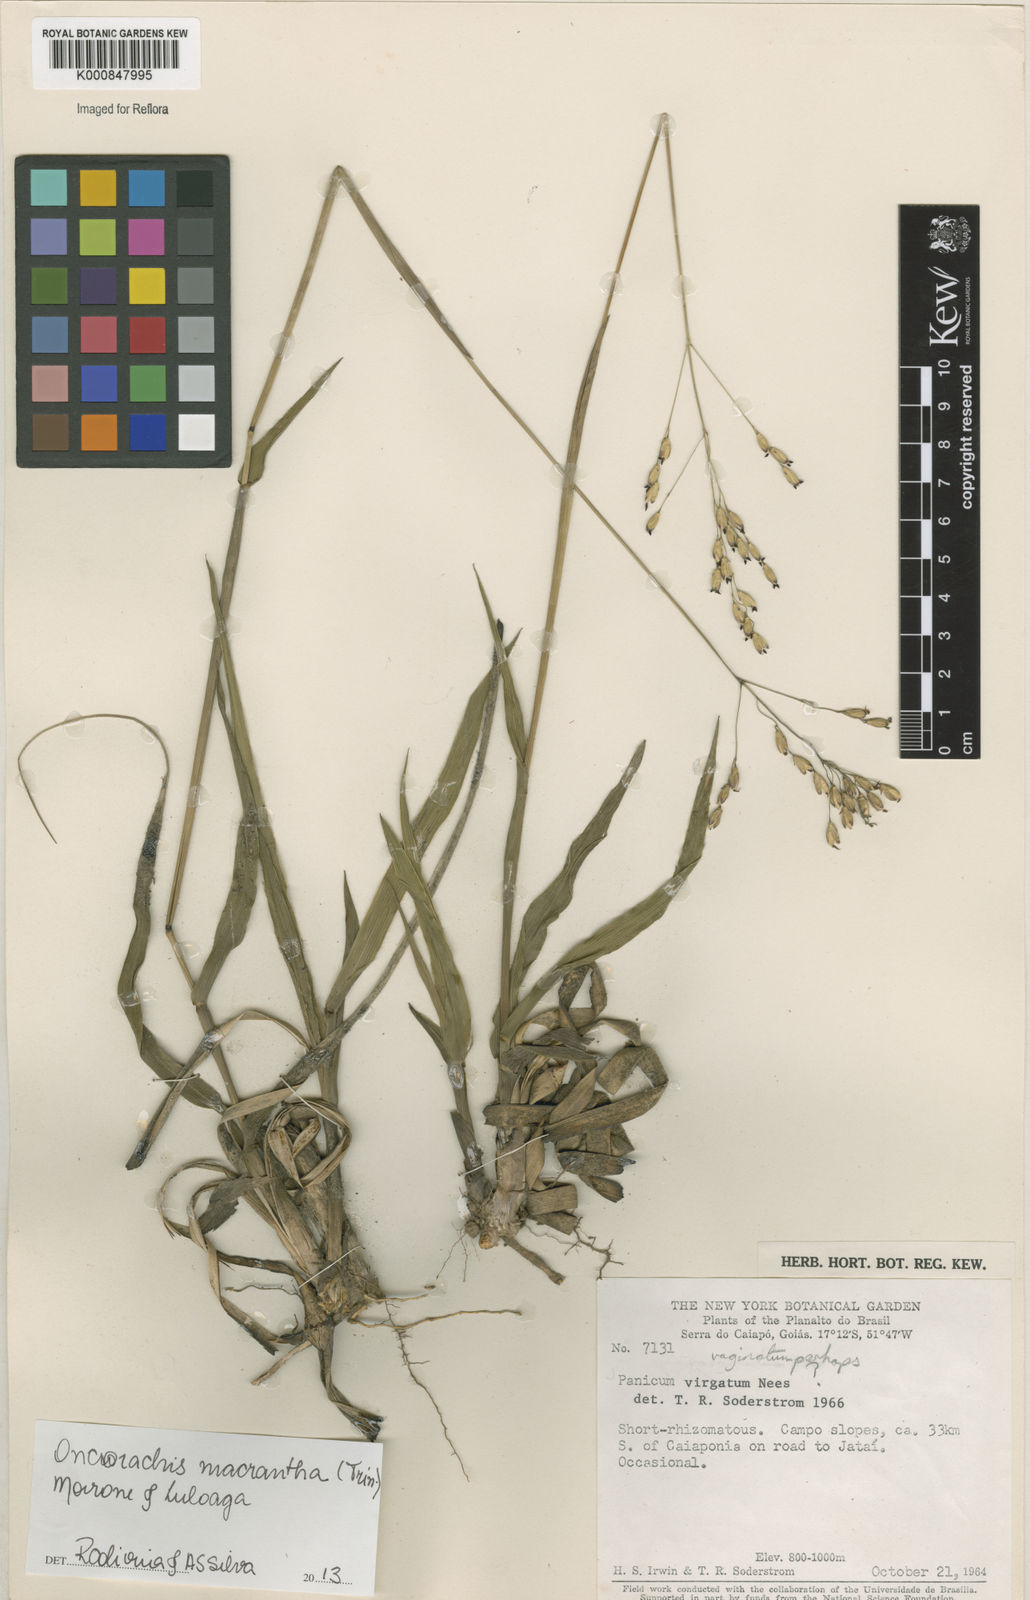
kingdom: Plantae
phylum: Tracheophyta
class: Liliopsida
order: Poales
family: Poaceae
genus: Oncorachis
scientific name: Oncorachis macrantha
